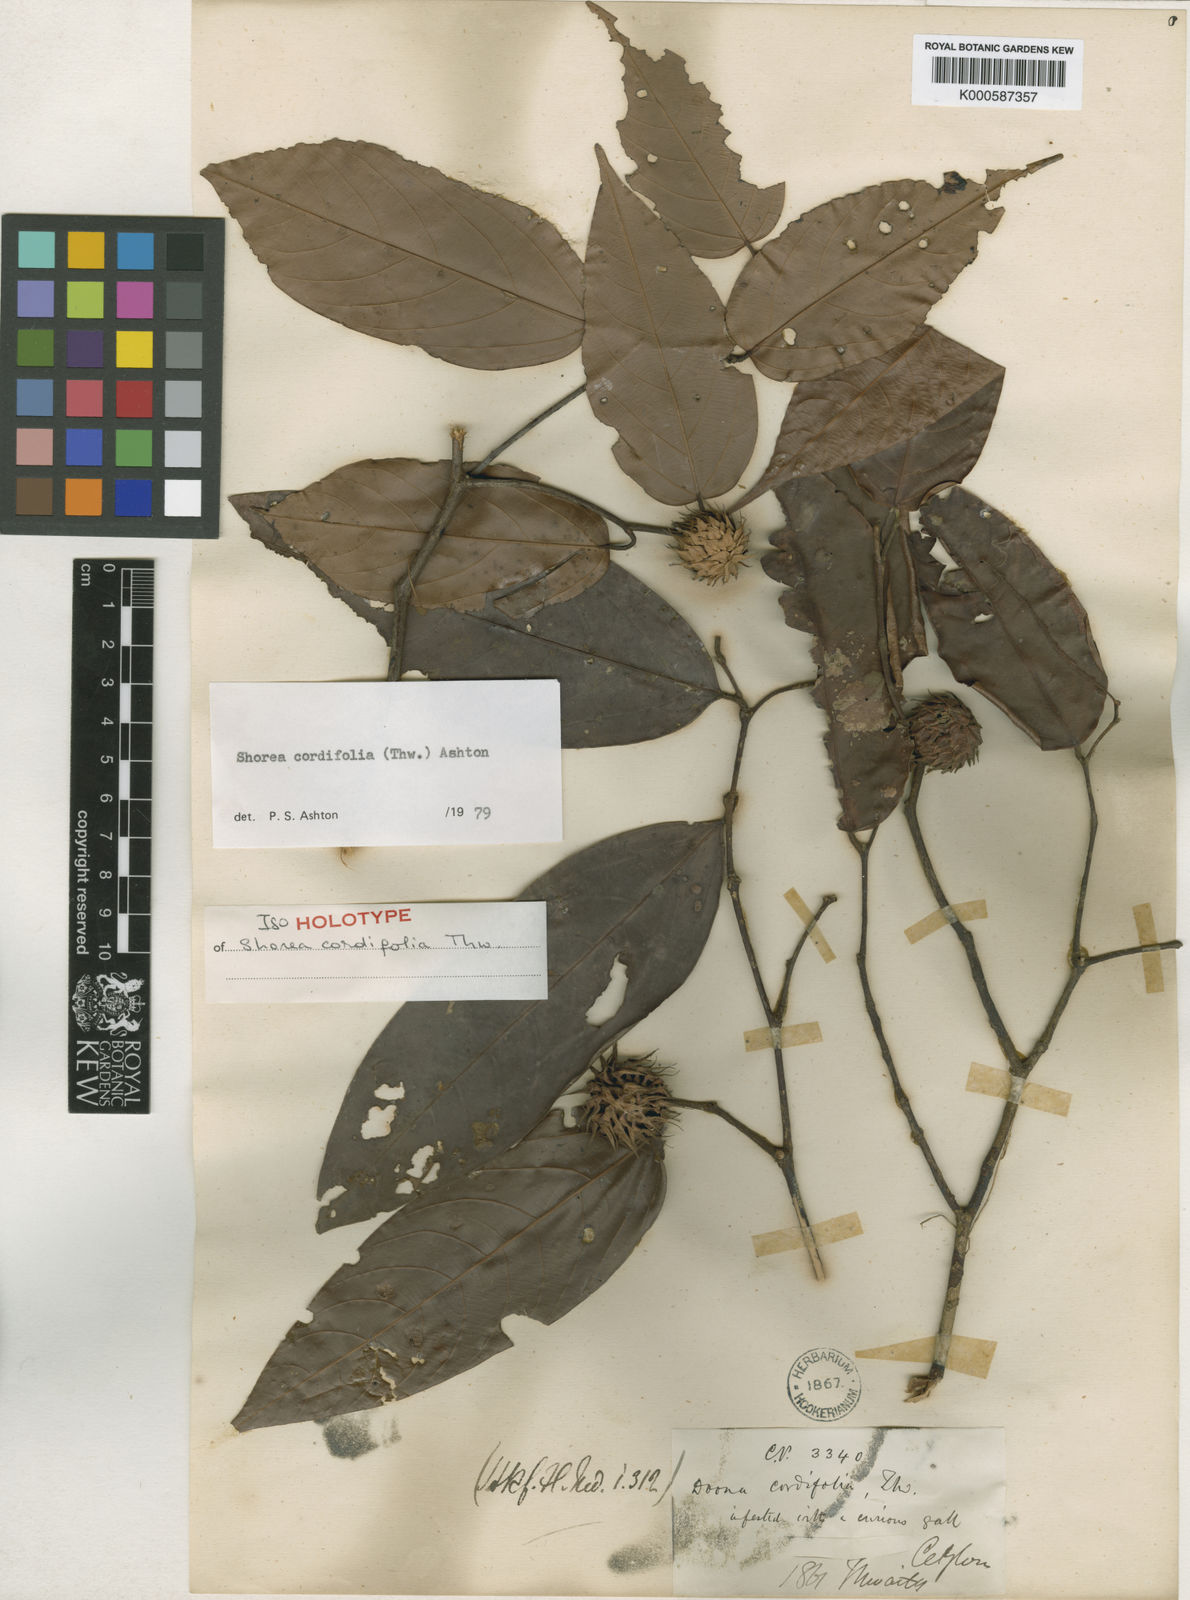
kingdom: Plantae
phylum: Tracheophyta
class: Magnoliopsida
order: Malvales
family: Dipterocarpaceae
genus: Doona
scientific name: Doona cordifolia
